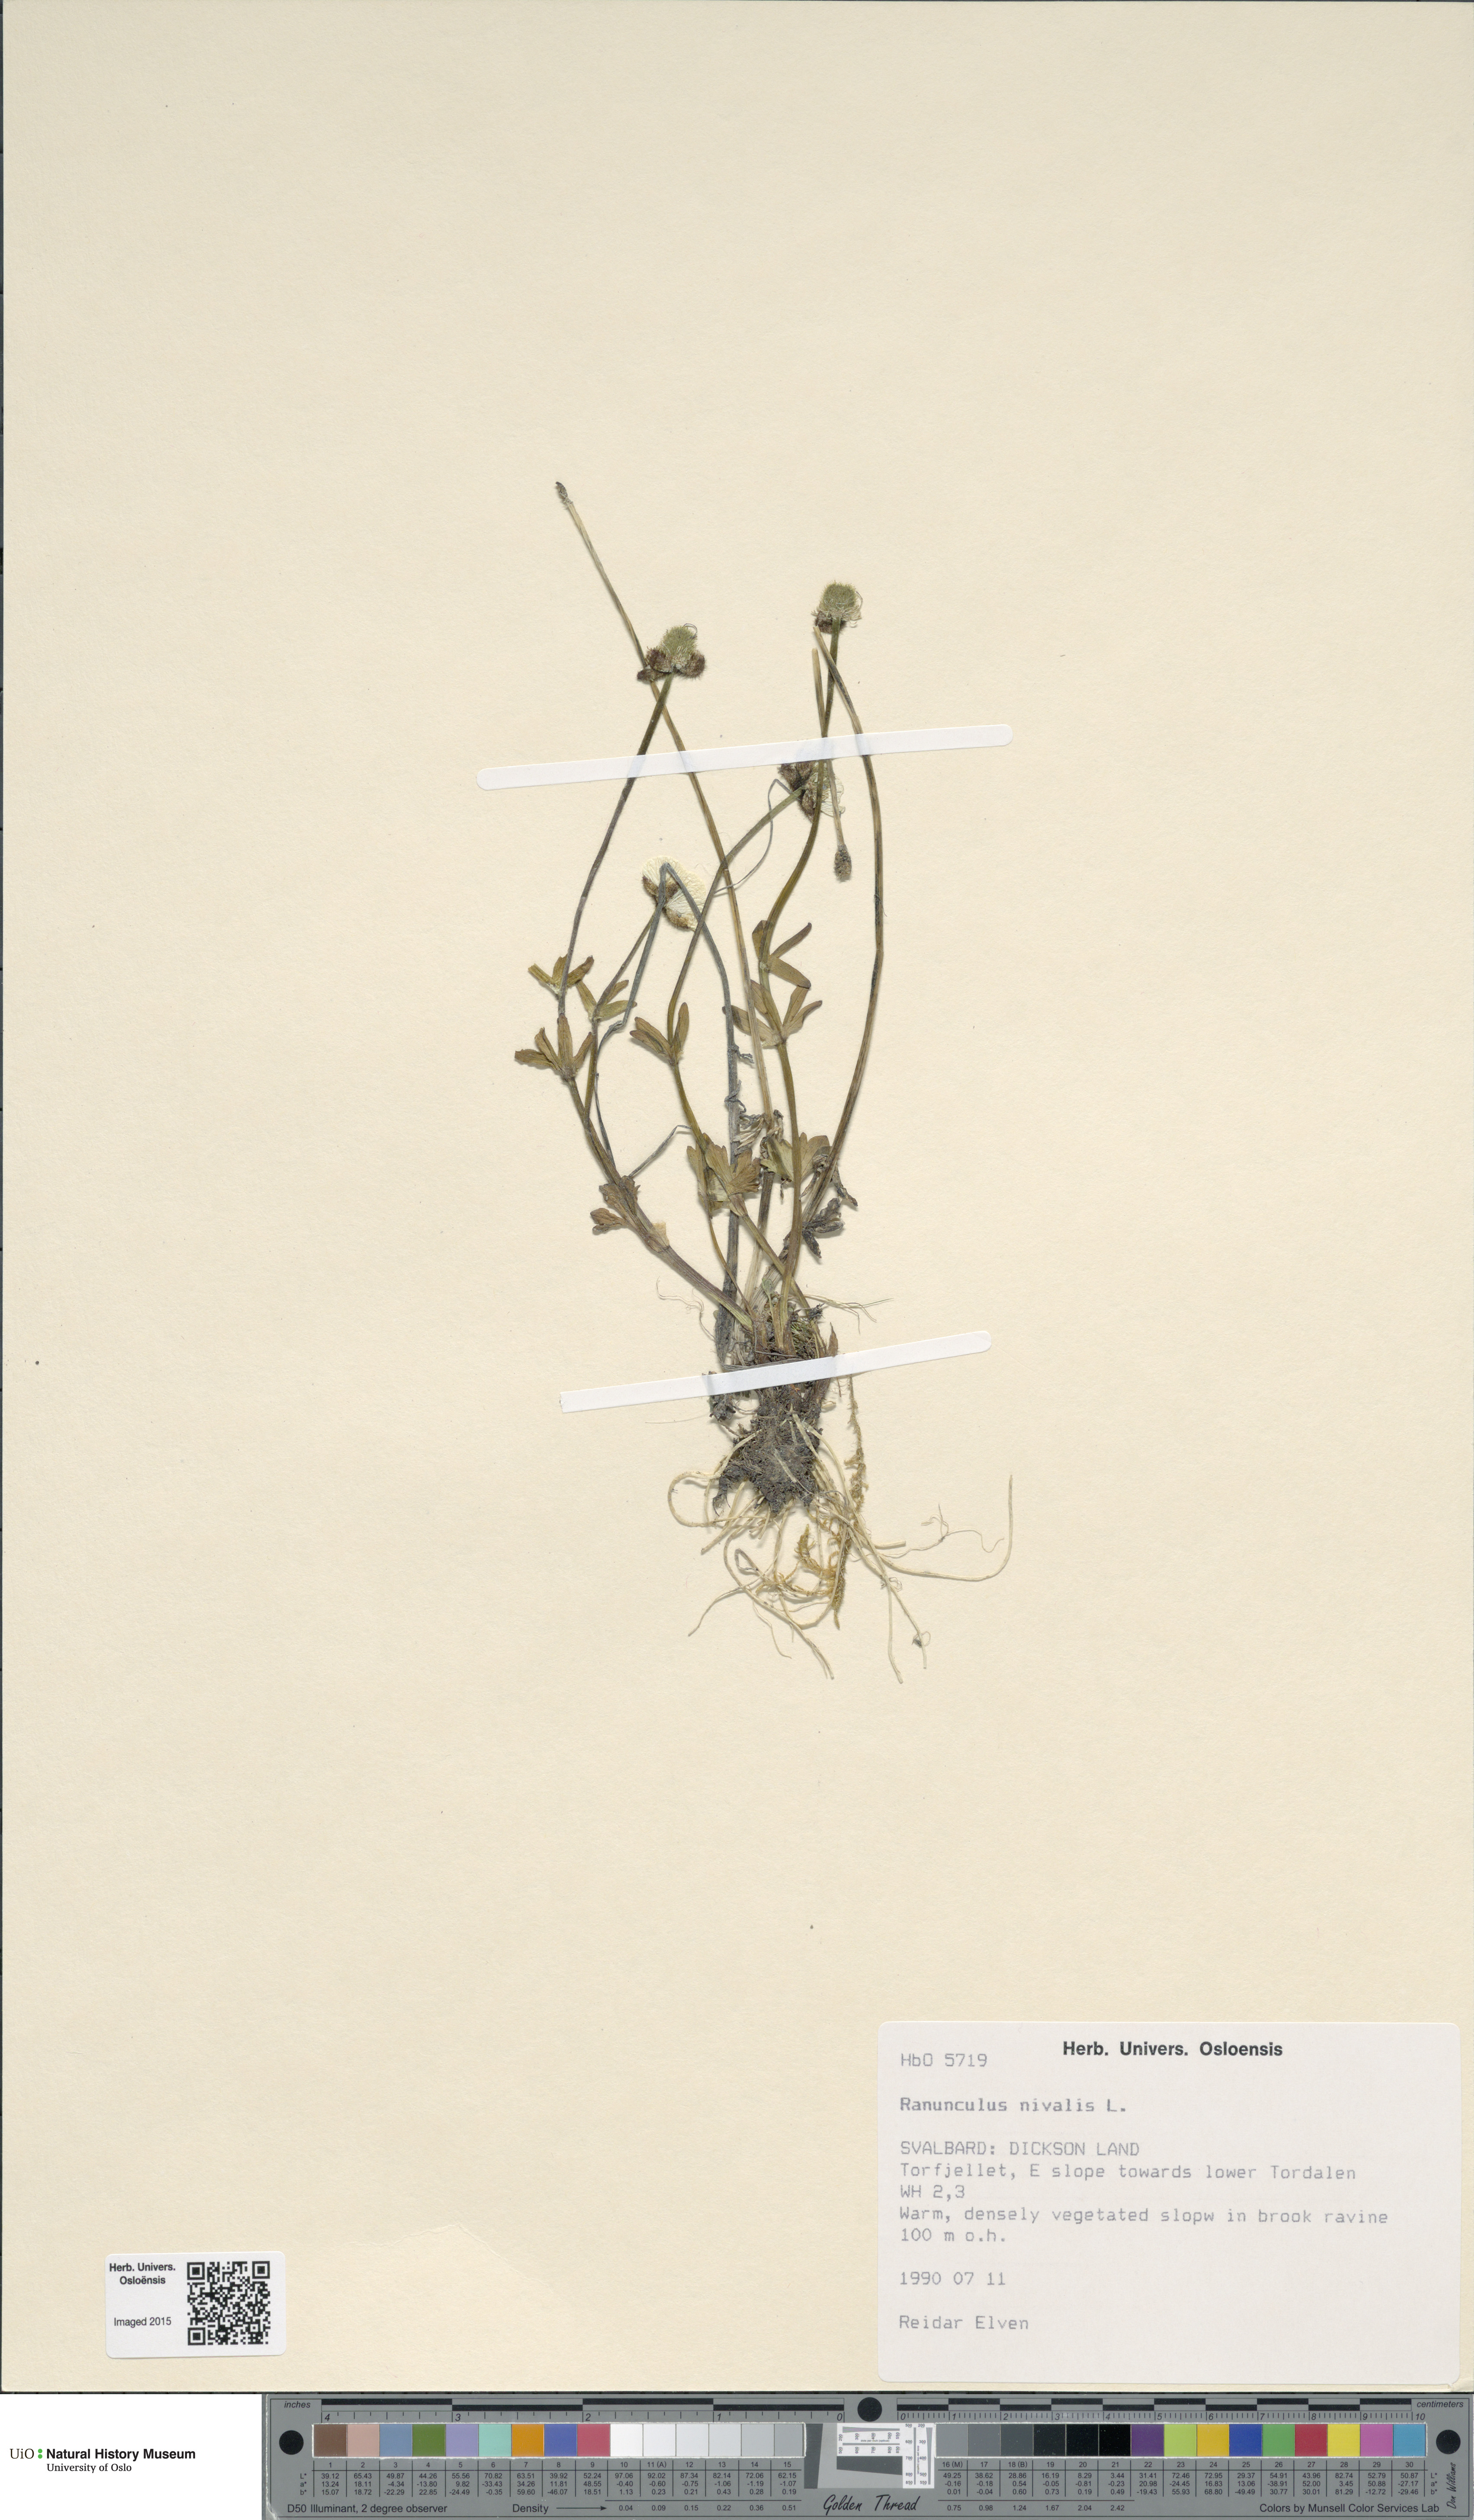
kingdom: Plantae
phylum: Tracheophyta
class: Magnoliopsida
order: Ranunculales
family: Ranunculaceae
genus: Ranunculus
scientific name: Ranunculus nivalis
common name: Snow buttercup
